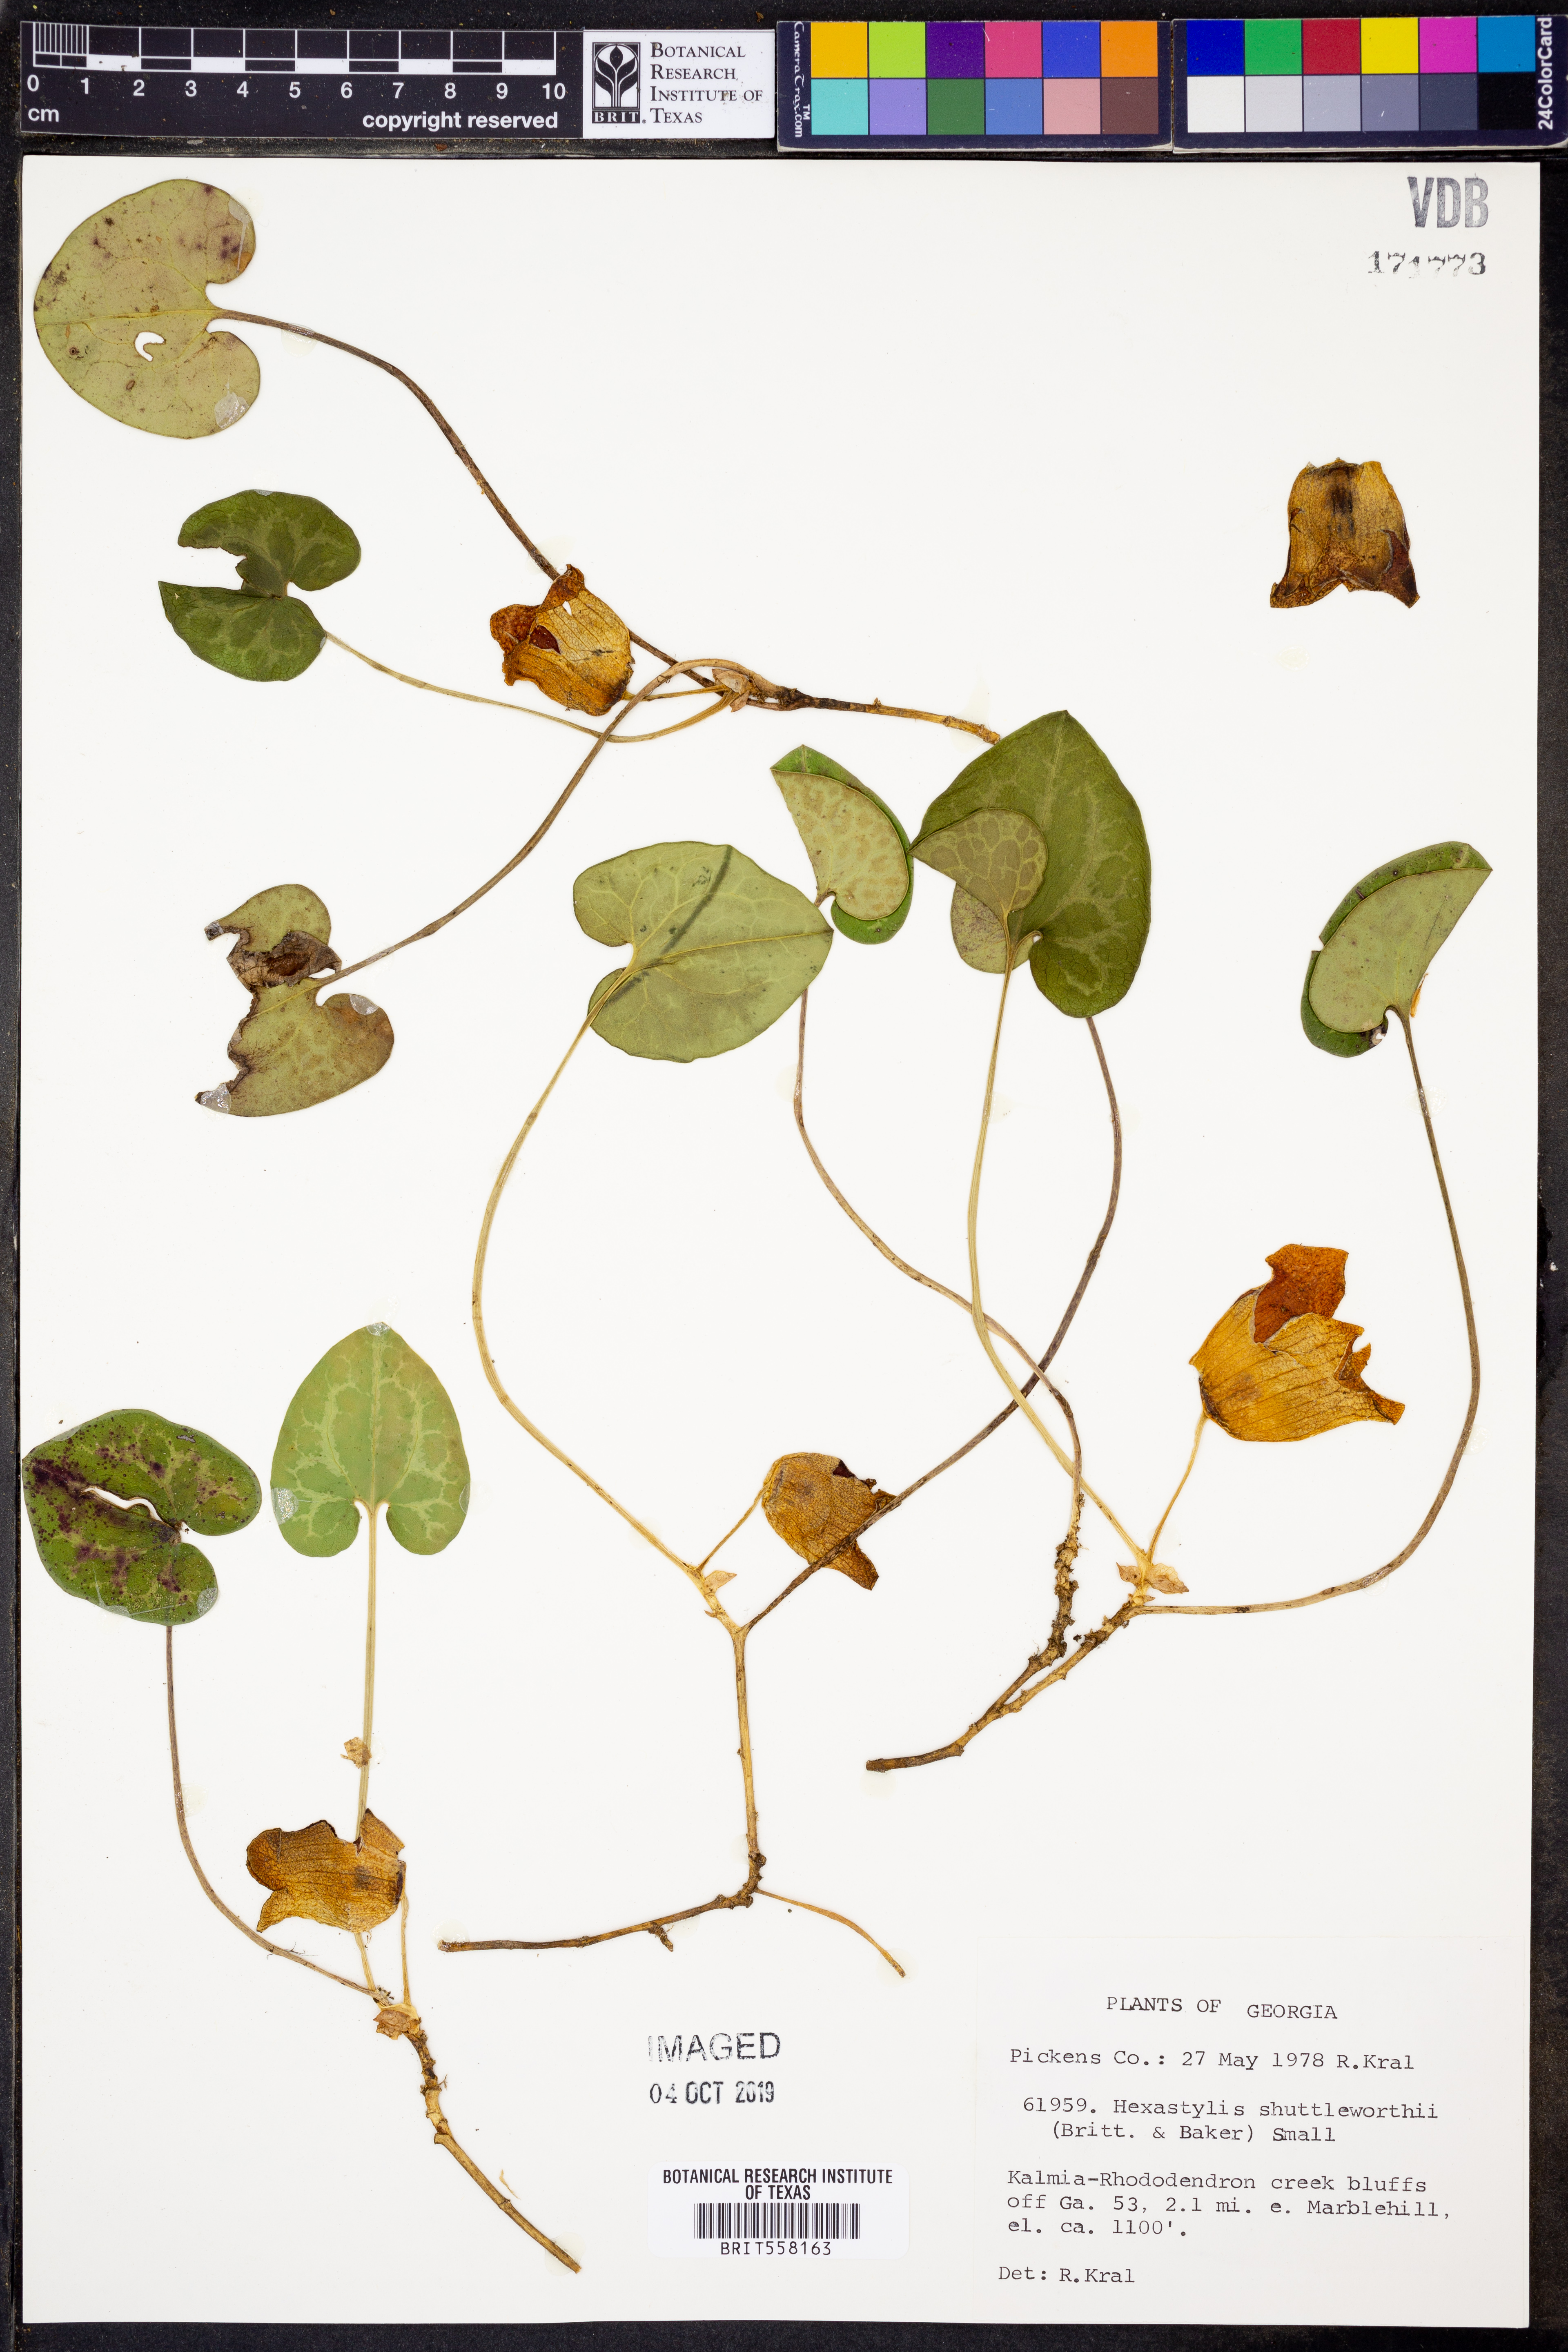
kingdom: Plantae
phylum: Tracheophyta
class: Magnoliopsida
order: Piperales
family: Aristolochiaceae
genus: Hexastylis
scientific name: Hexastylis shuttleworthii
